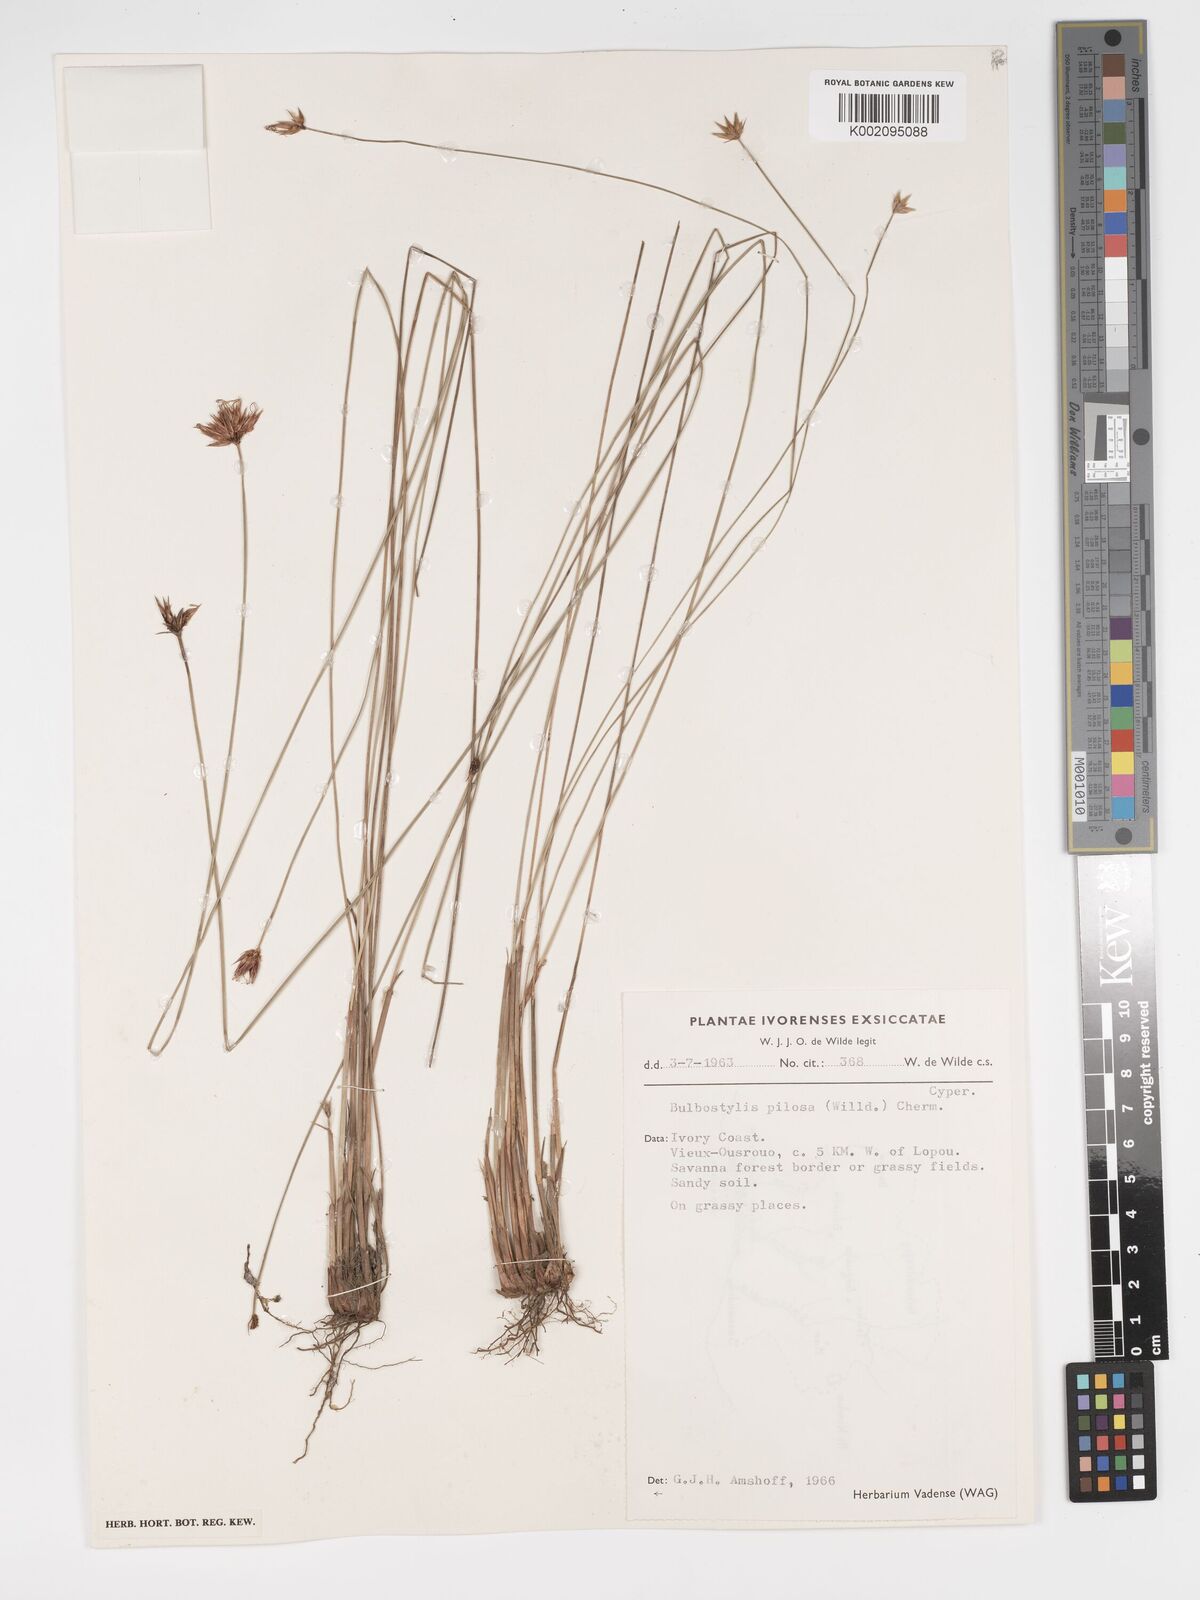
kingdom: Plantae
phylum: Tracheophyta
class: Liliopsida
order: Poales
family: Cyperaceae
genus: Bulbostylis
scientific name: Bulbostylis pilosa
